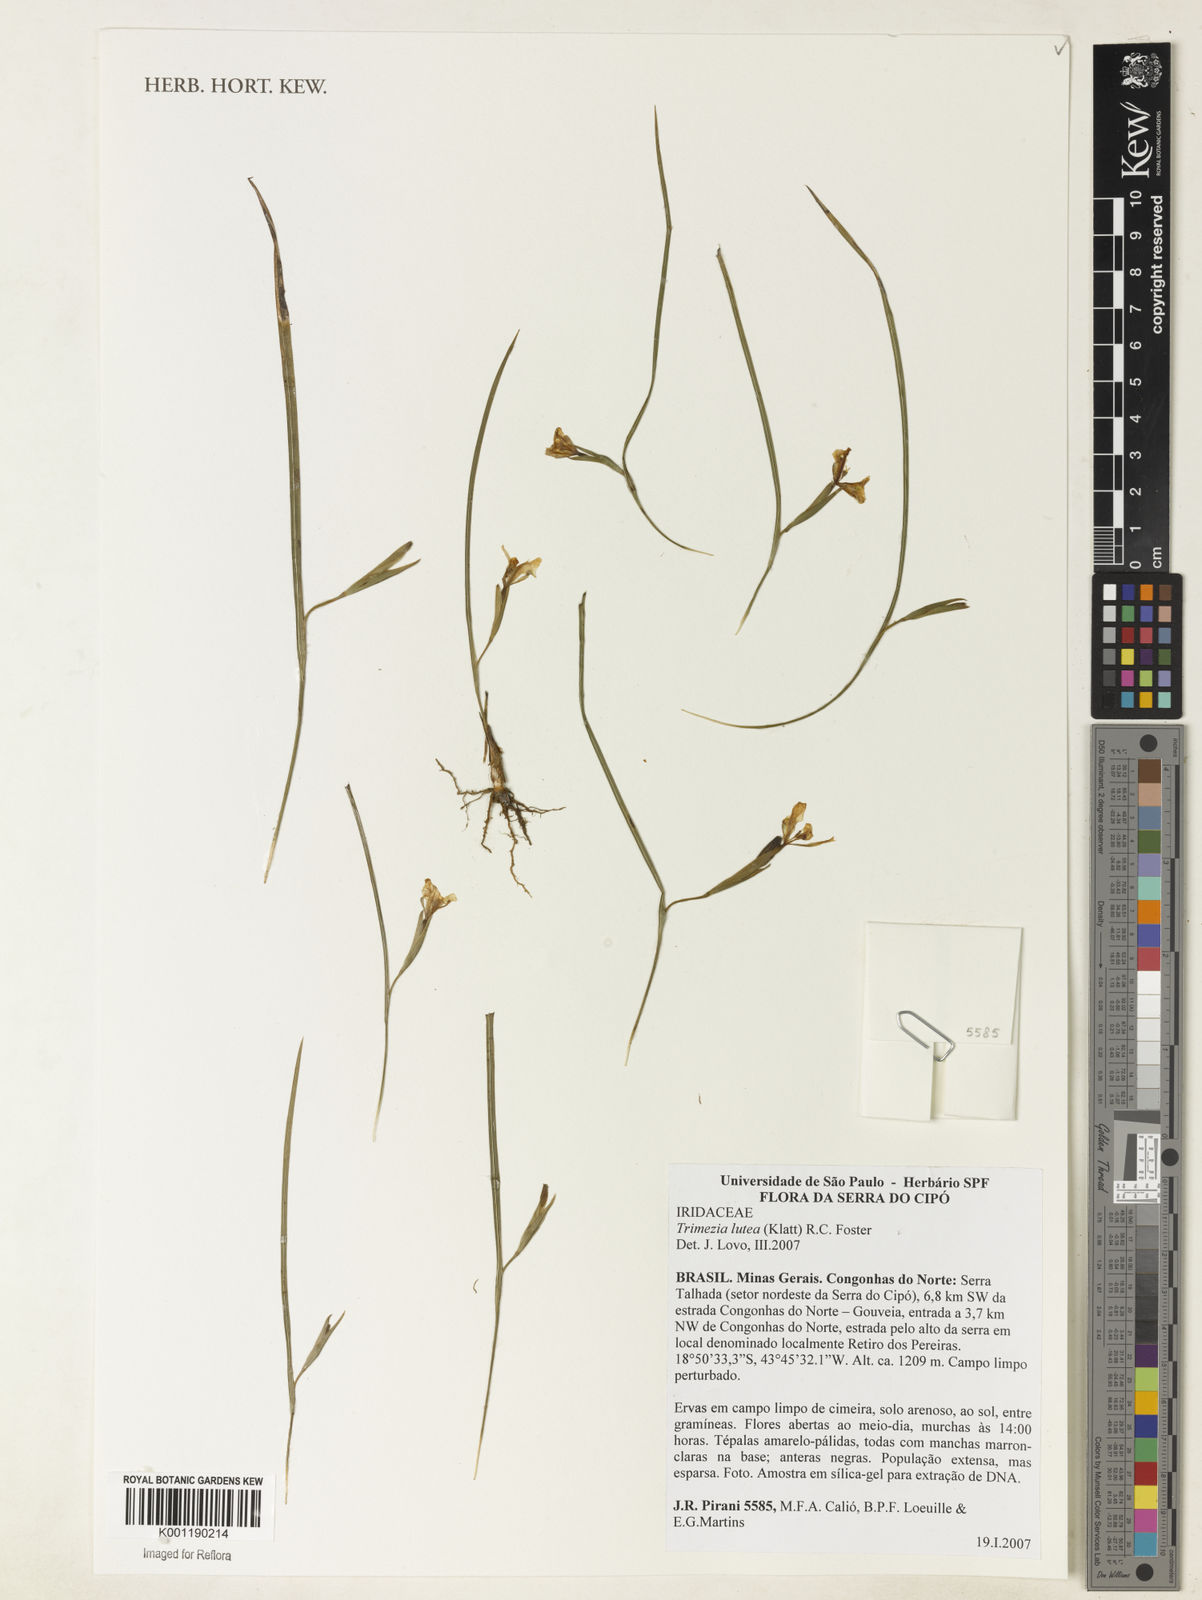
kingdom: Plantae
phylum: Tracheophyta
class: Liliopsida
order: Asparagales
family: Iridaceae
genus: Trimezia
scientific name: Trimezia longifolia
